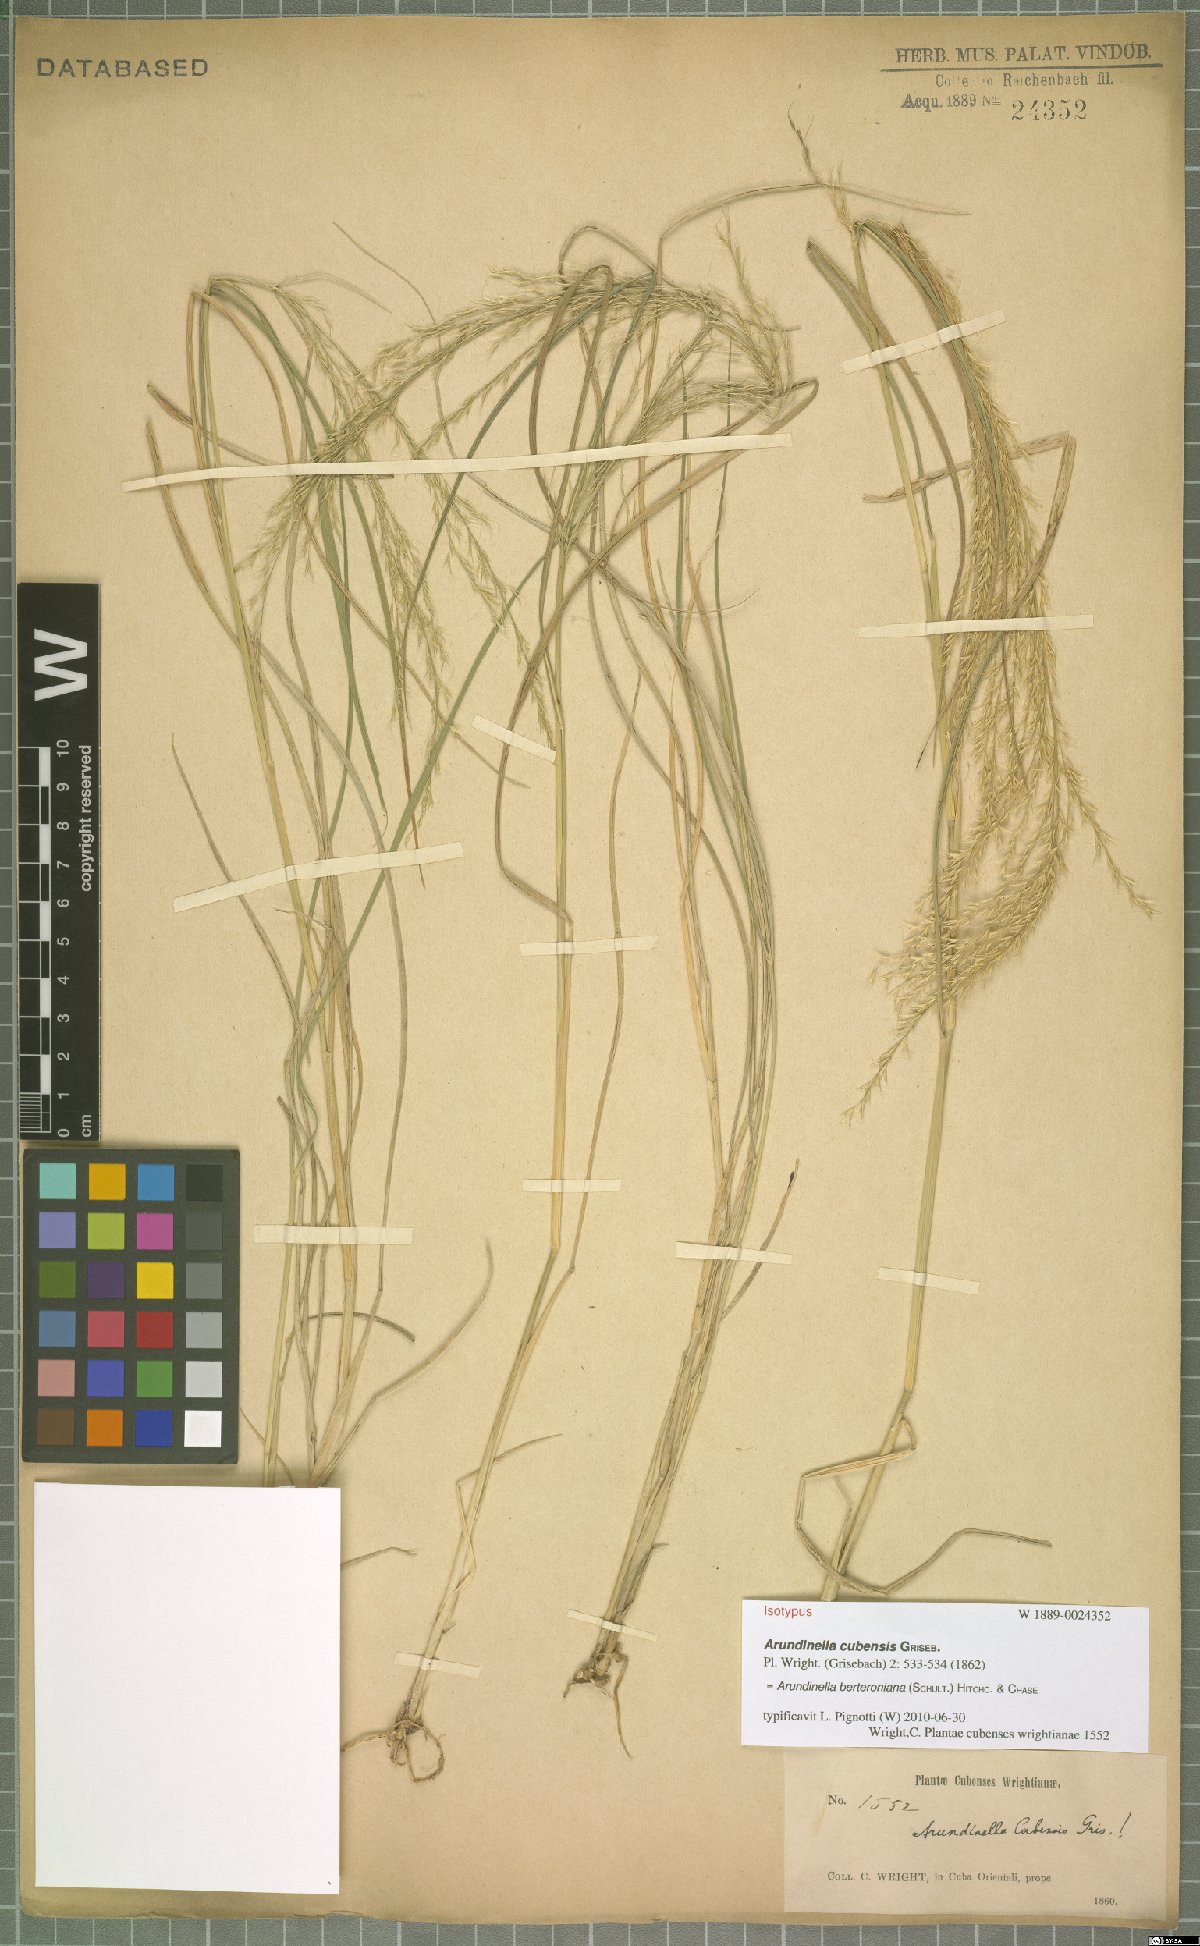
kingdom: Plantae
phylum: Tracheophyta
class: Liliopsida
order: Poales
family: Poaceae
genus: Arundinella
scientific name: Arundinella berteroniana
